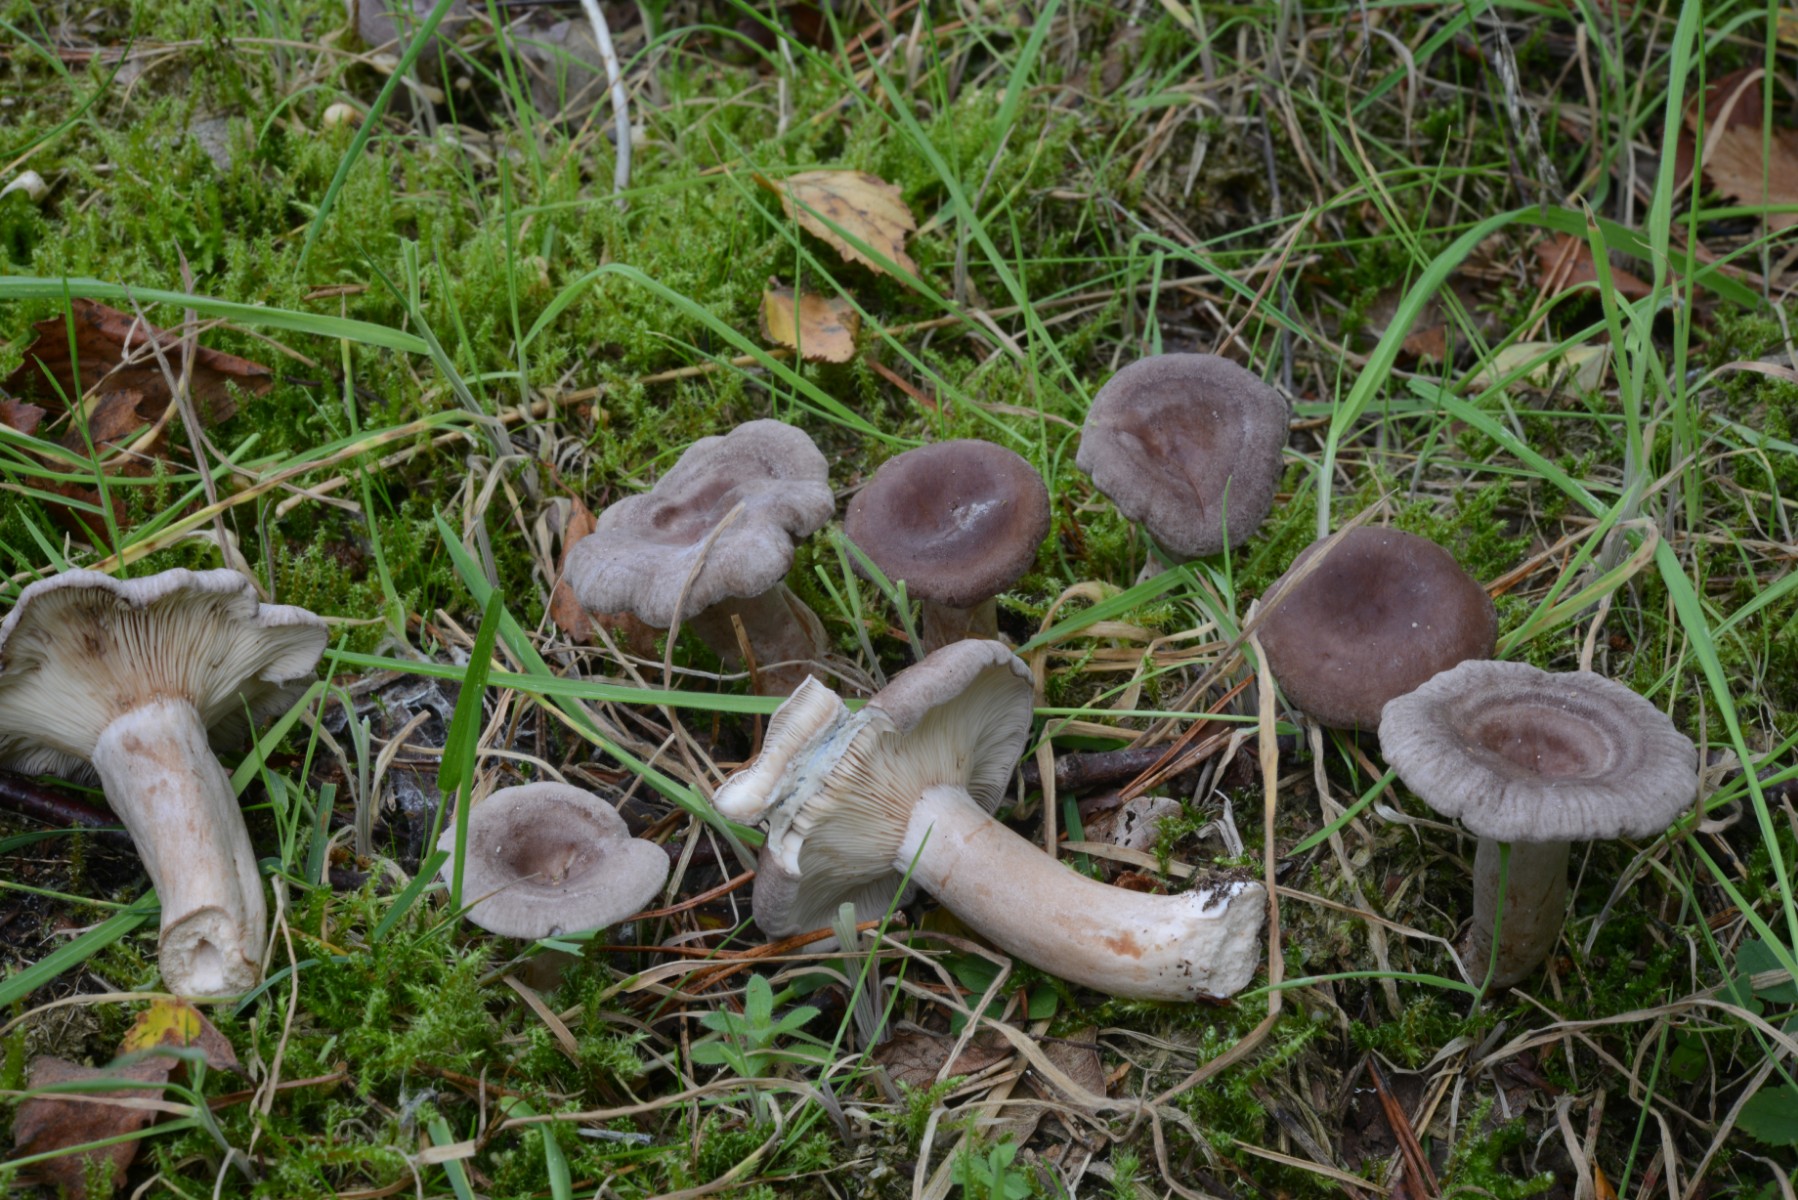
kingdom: Fungi
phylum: Basidiomycota
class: Agaricomycetes
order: Russulales
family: Russulaceae
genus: Lactarius
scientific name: Lactarius vietus
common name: violetgrå mælkehat
